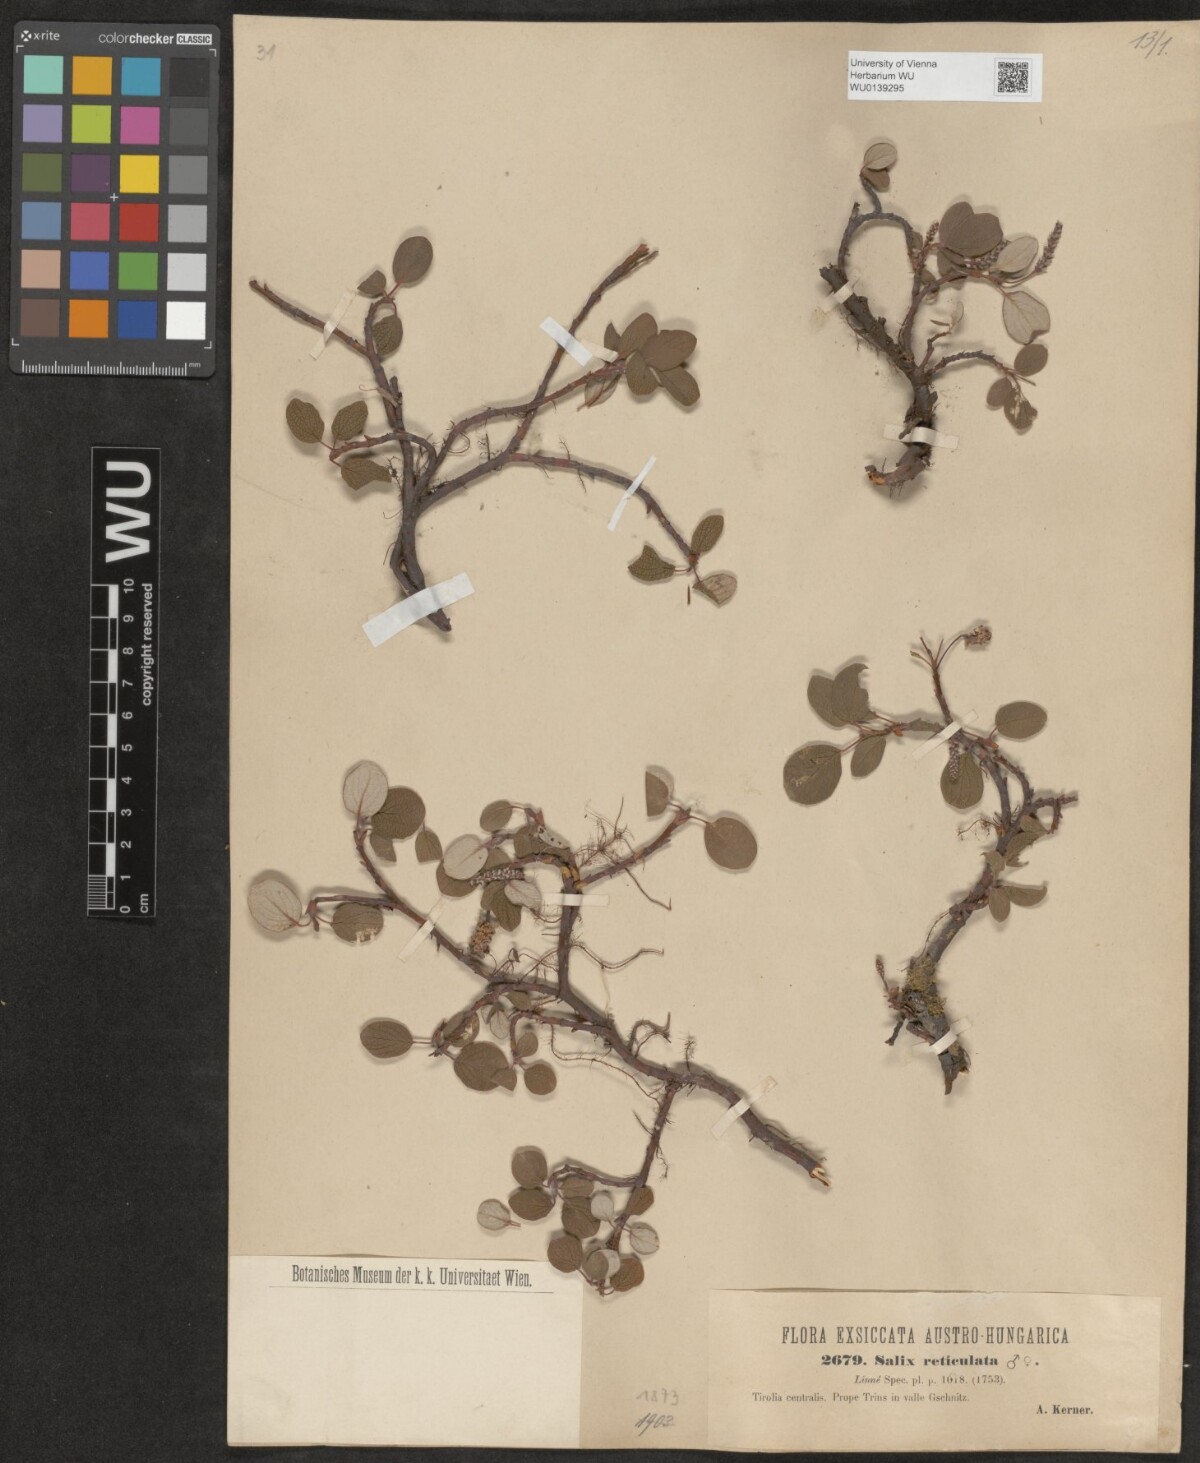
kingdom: Plantae
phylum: Tracheophyta
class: Magnoliopsida
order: Malpighiales
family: Salicaceae
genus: Salix
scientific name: Salix reticulata
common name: Net-leaved willow
